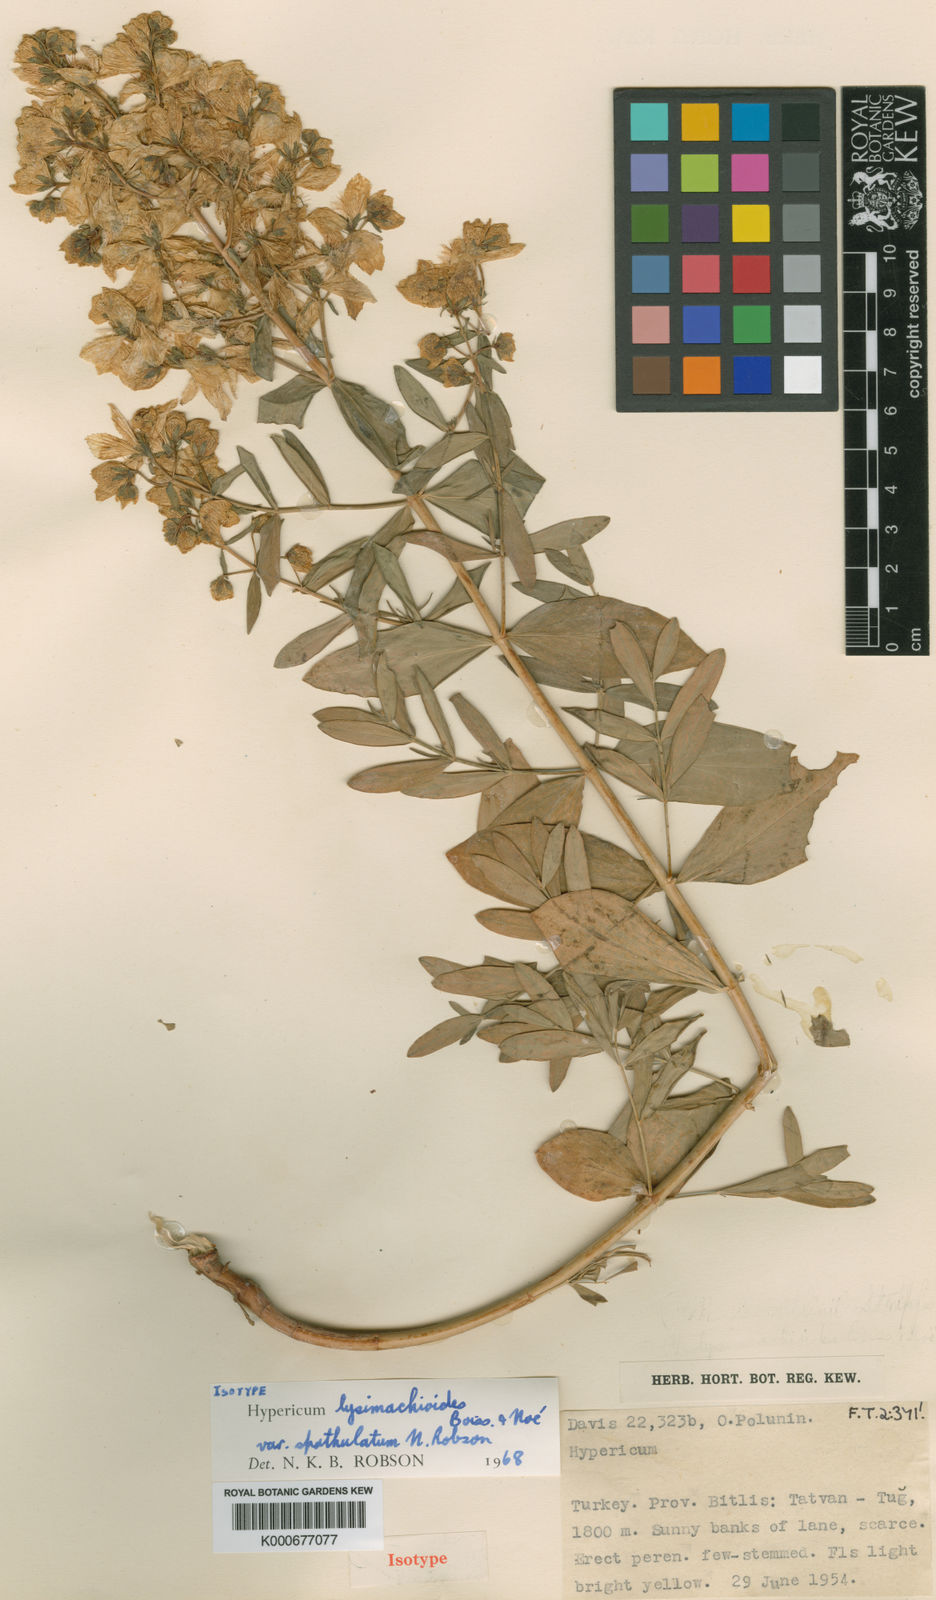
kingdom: Plantae
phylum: Tracheophyta
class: Magnoliopsida
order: Malpighiales
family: Hypericaceae
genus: Hypericum
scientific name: Hypericum
